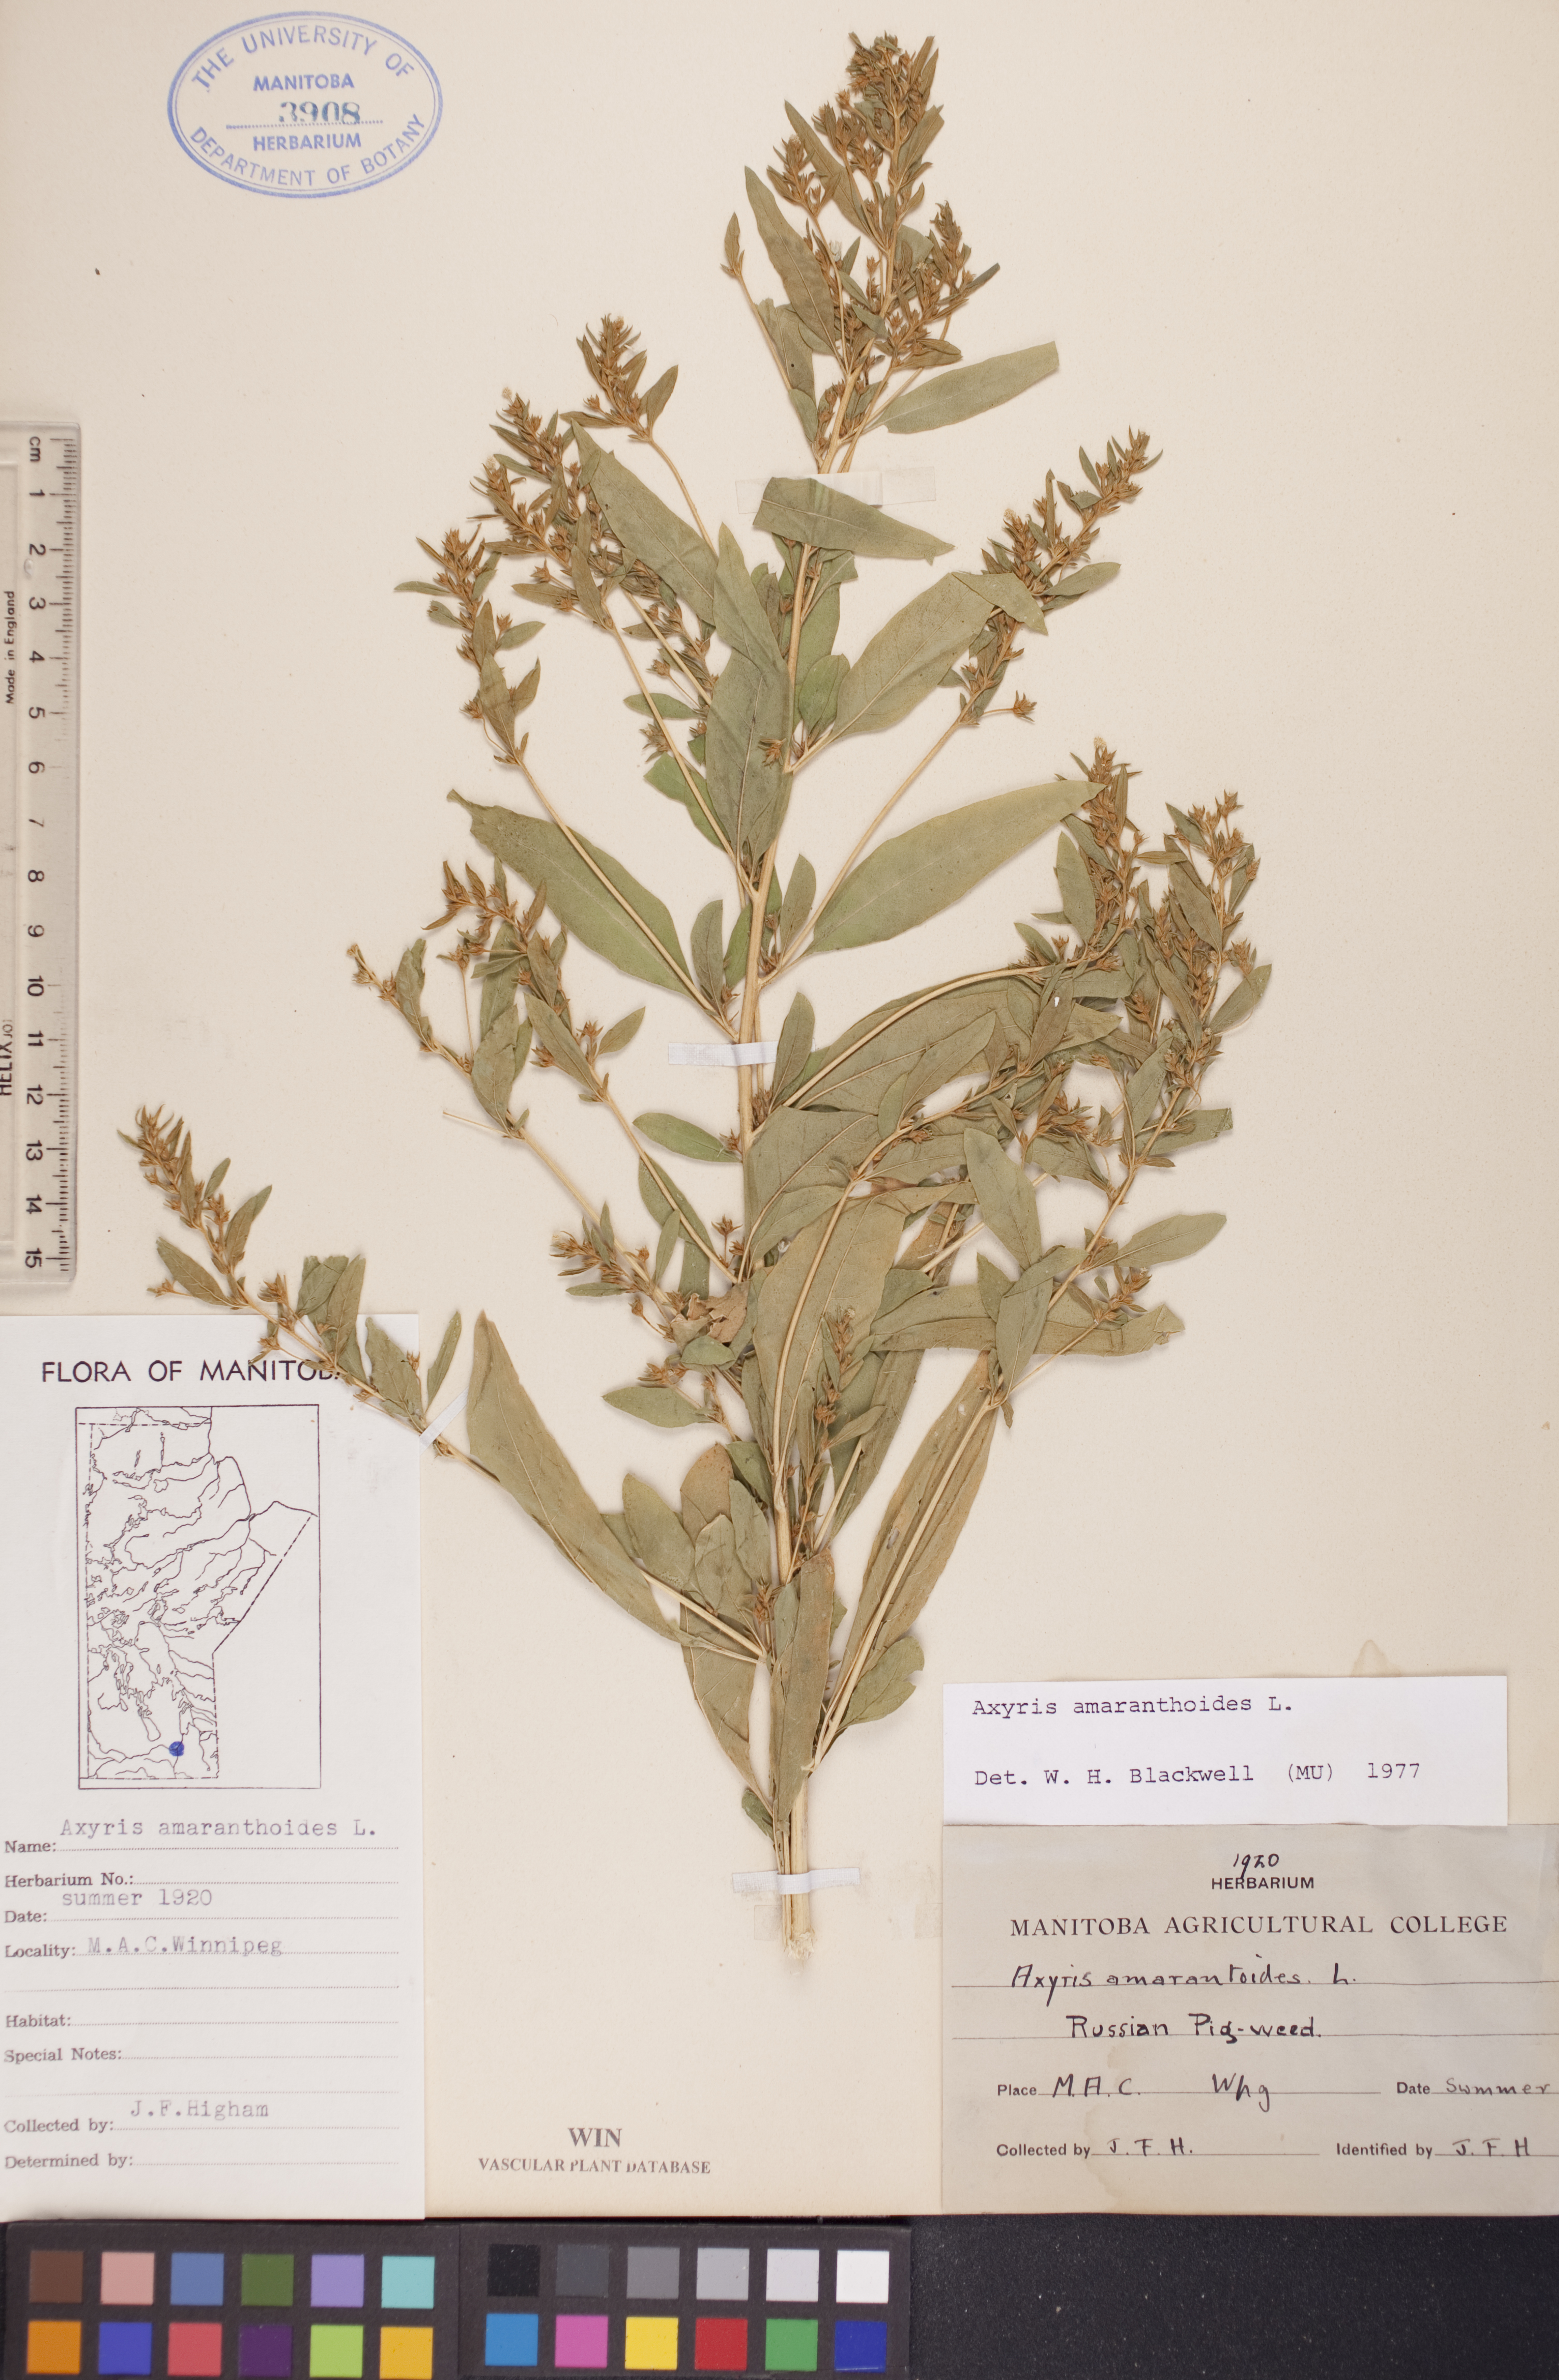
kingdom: Plantae
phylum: Tracheophyta
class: Magnoliopsida
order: Caryophyllales
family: Amaranthaceae
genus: Axyris
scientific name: Axyris amaranthoides
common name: Russian pigweed
